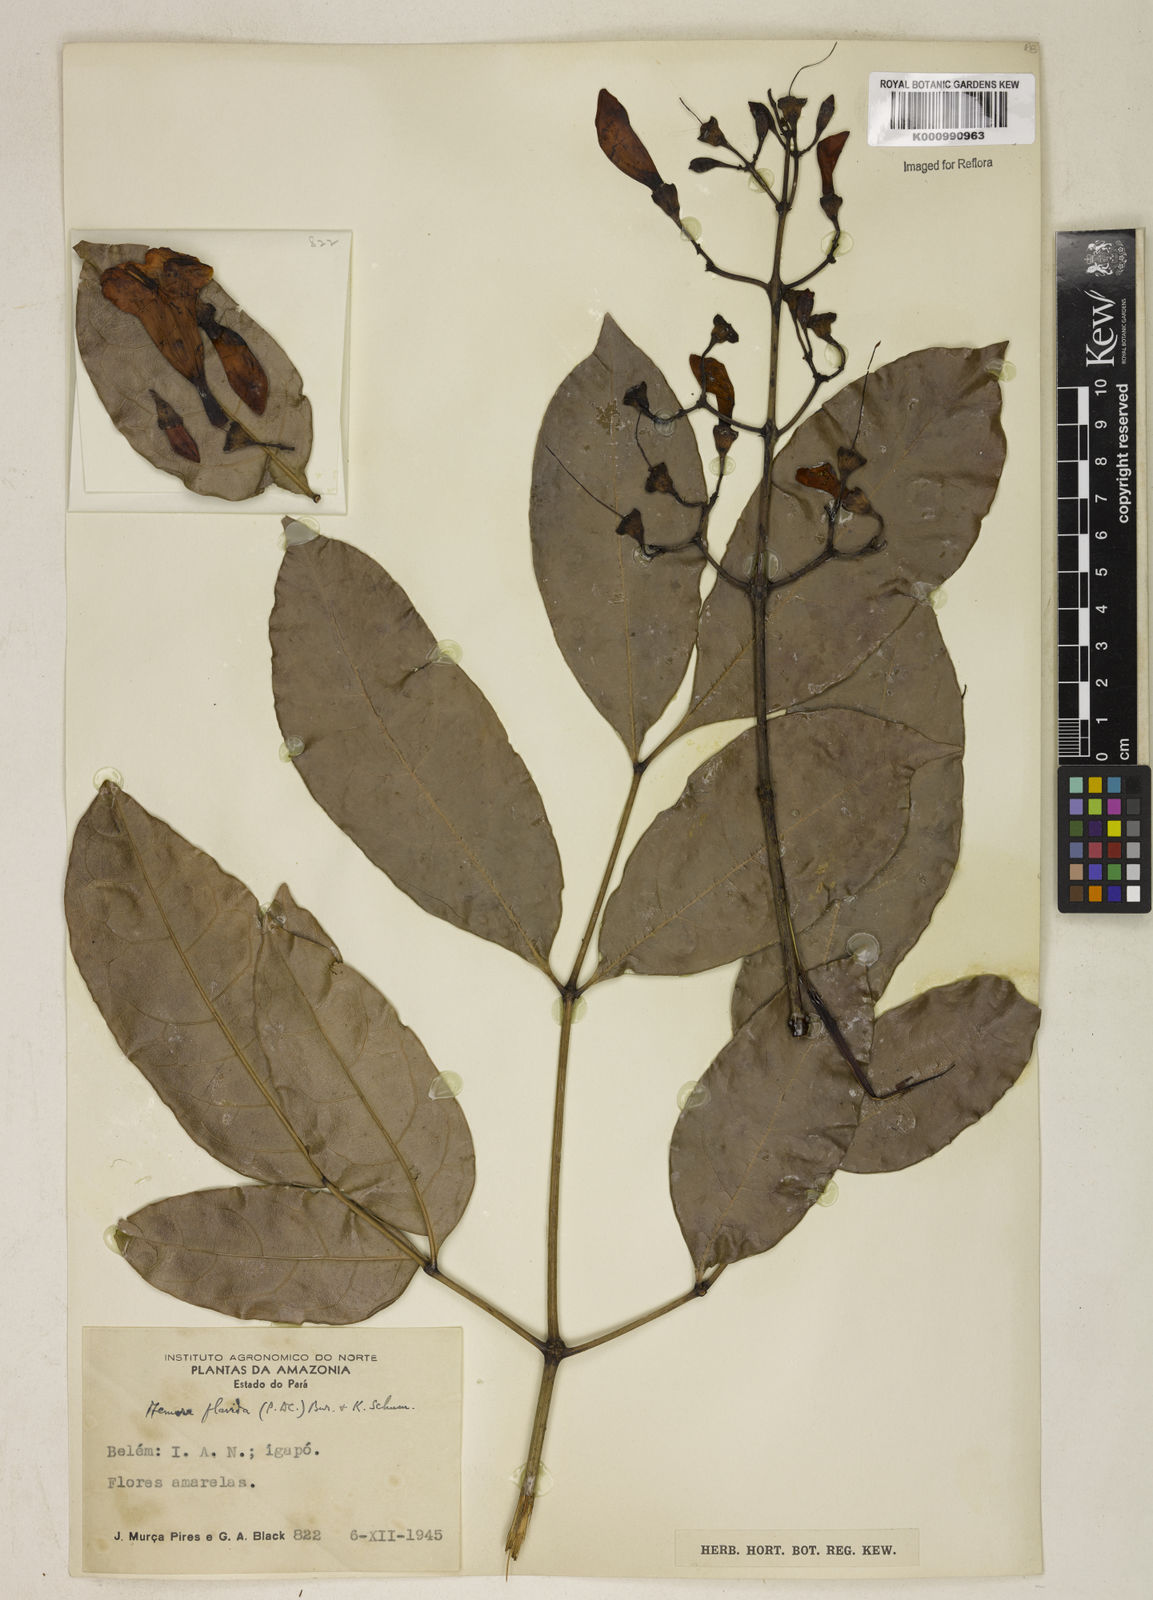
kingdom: Plantae
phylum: Tracheophyta
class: Magnoliopsida
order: Lamiales
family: Bignoniaceae
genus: Adenocalymma
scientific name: Adenocalymma neoflavidum
